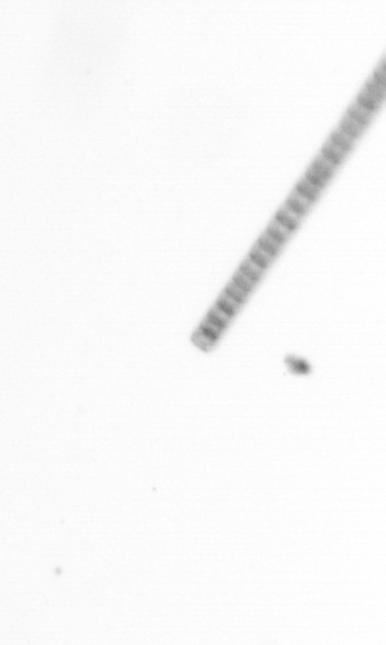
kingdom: Chromista
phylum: Ochrophyta
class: Bacillariophyceae
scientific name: Bacillariophyceae
